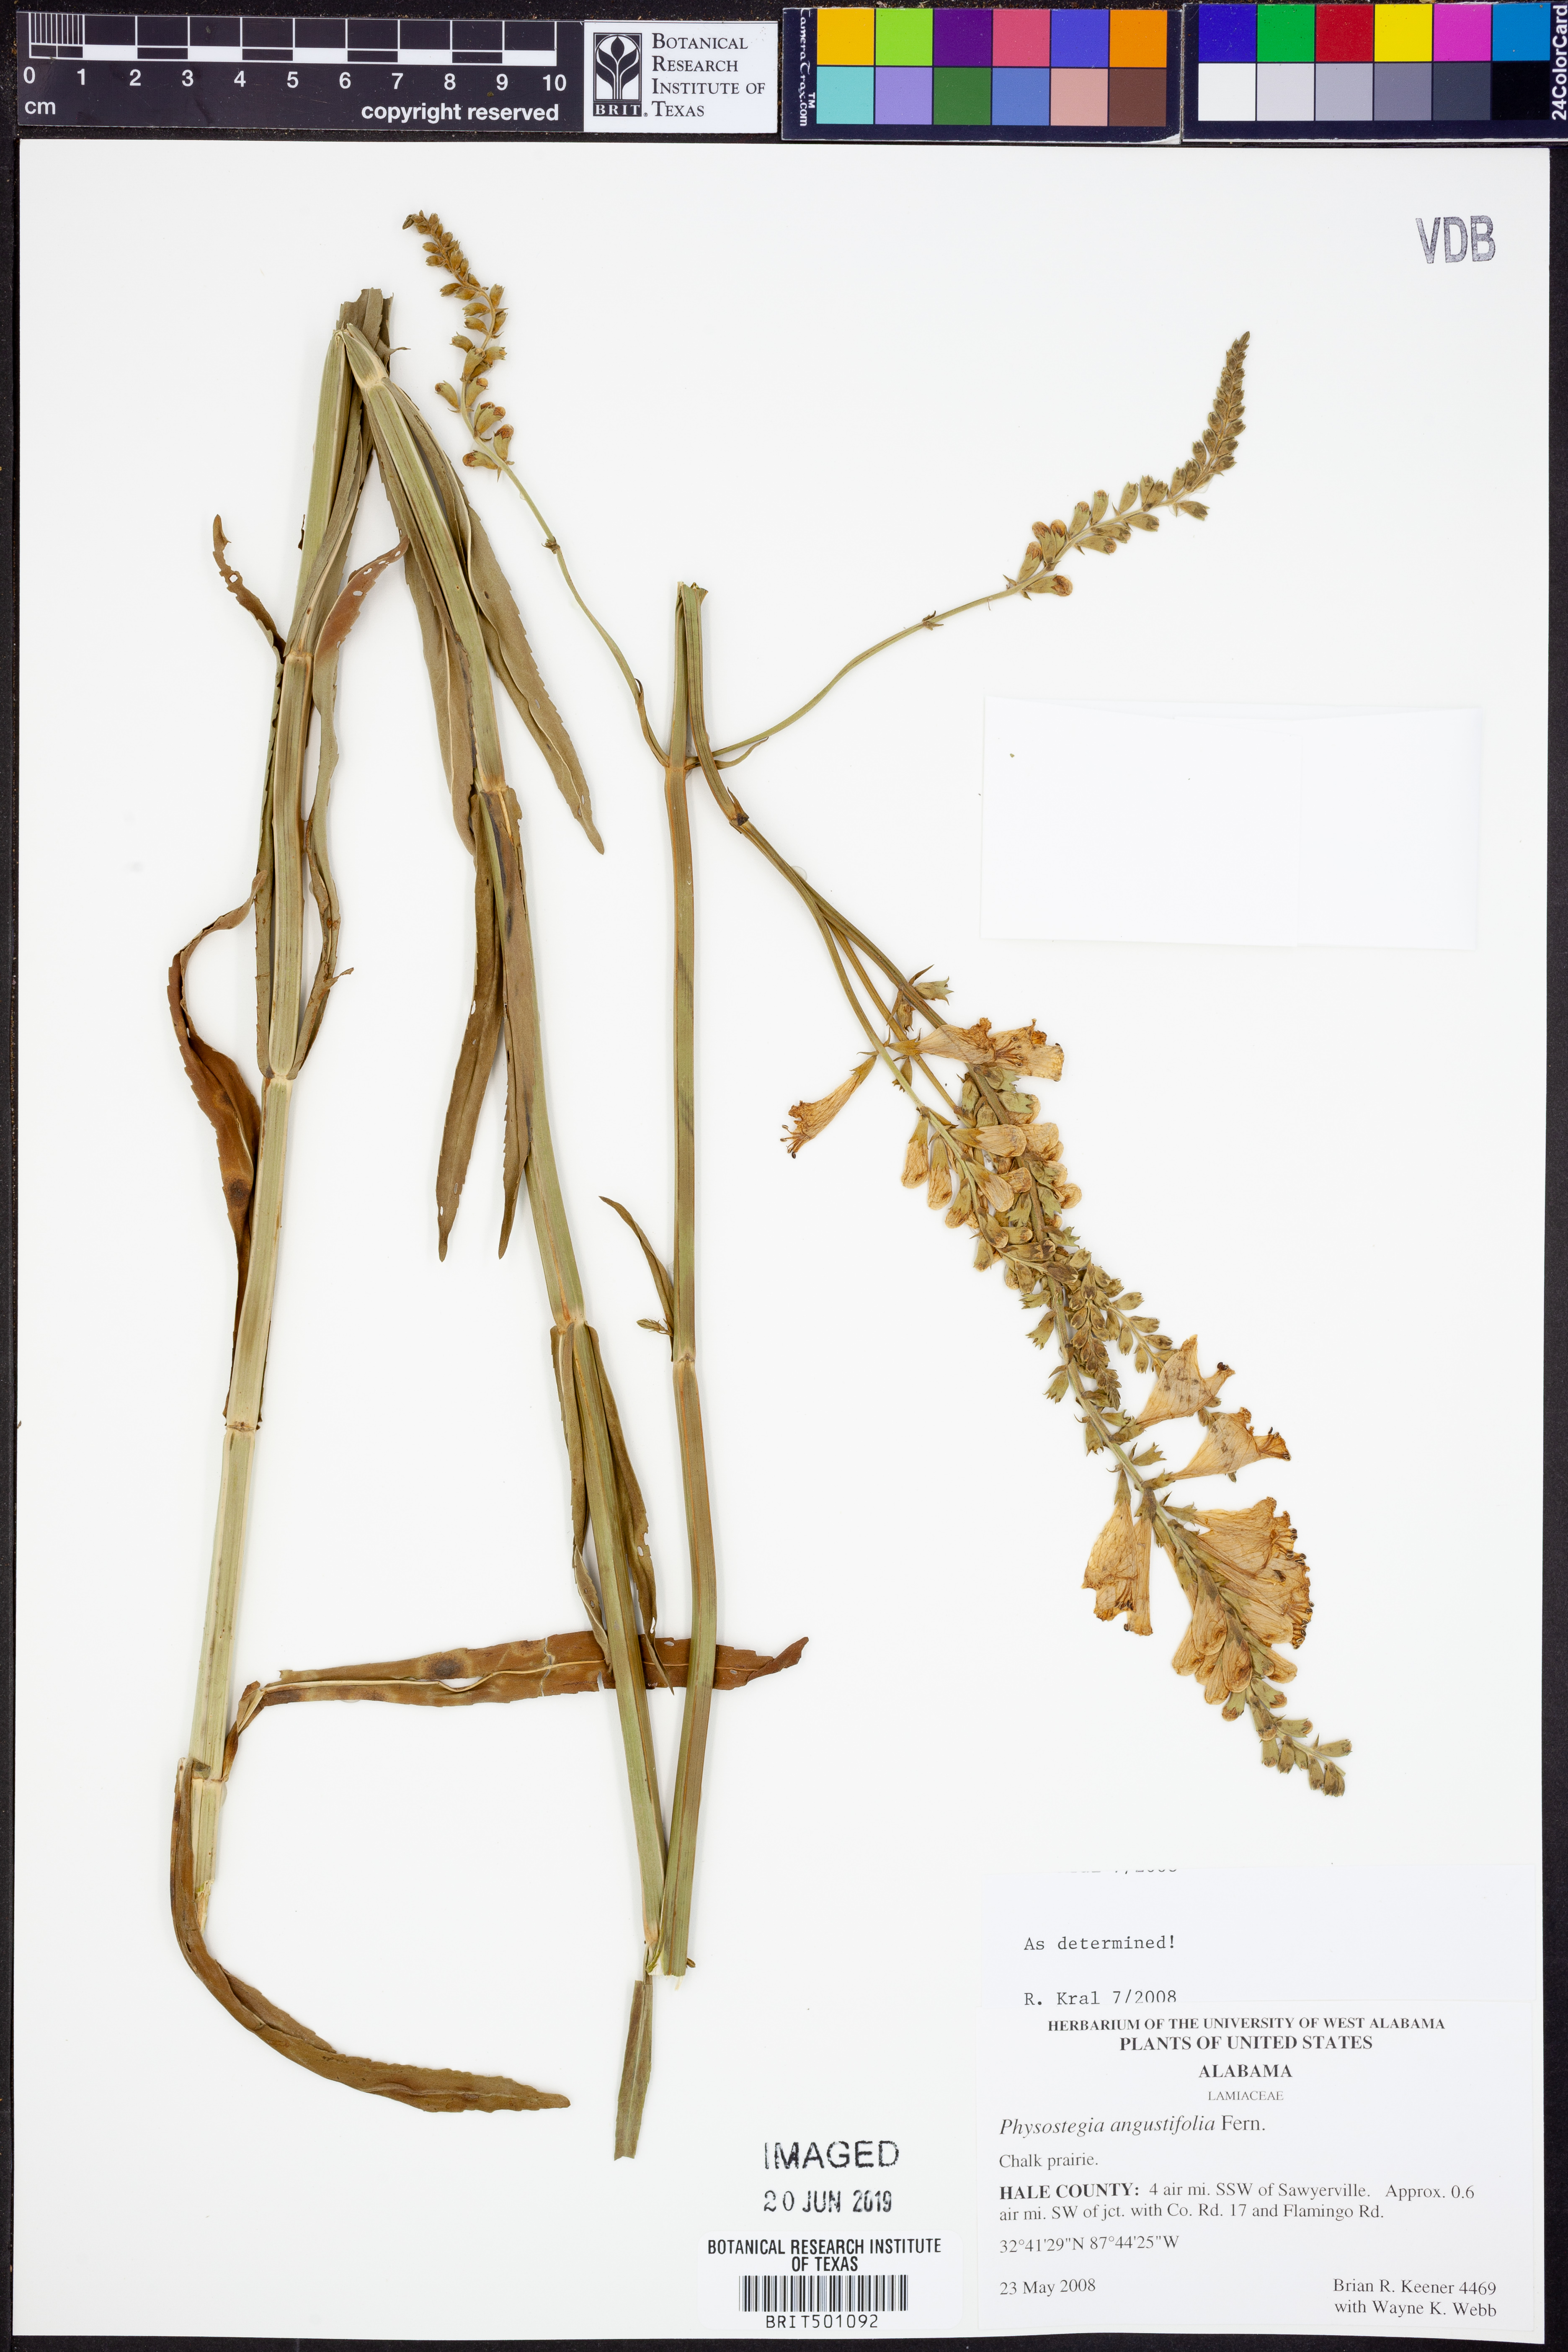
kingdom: Plantae
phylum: Tracheophyta
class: Magnoliopsida
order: Lamiales
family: Lamiaceae
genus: Physostegia
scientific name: Physostegia angustifolia
